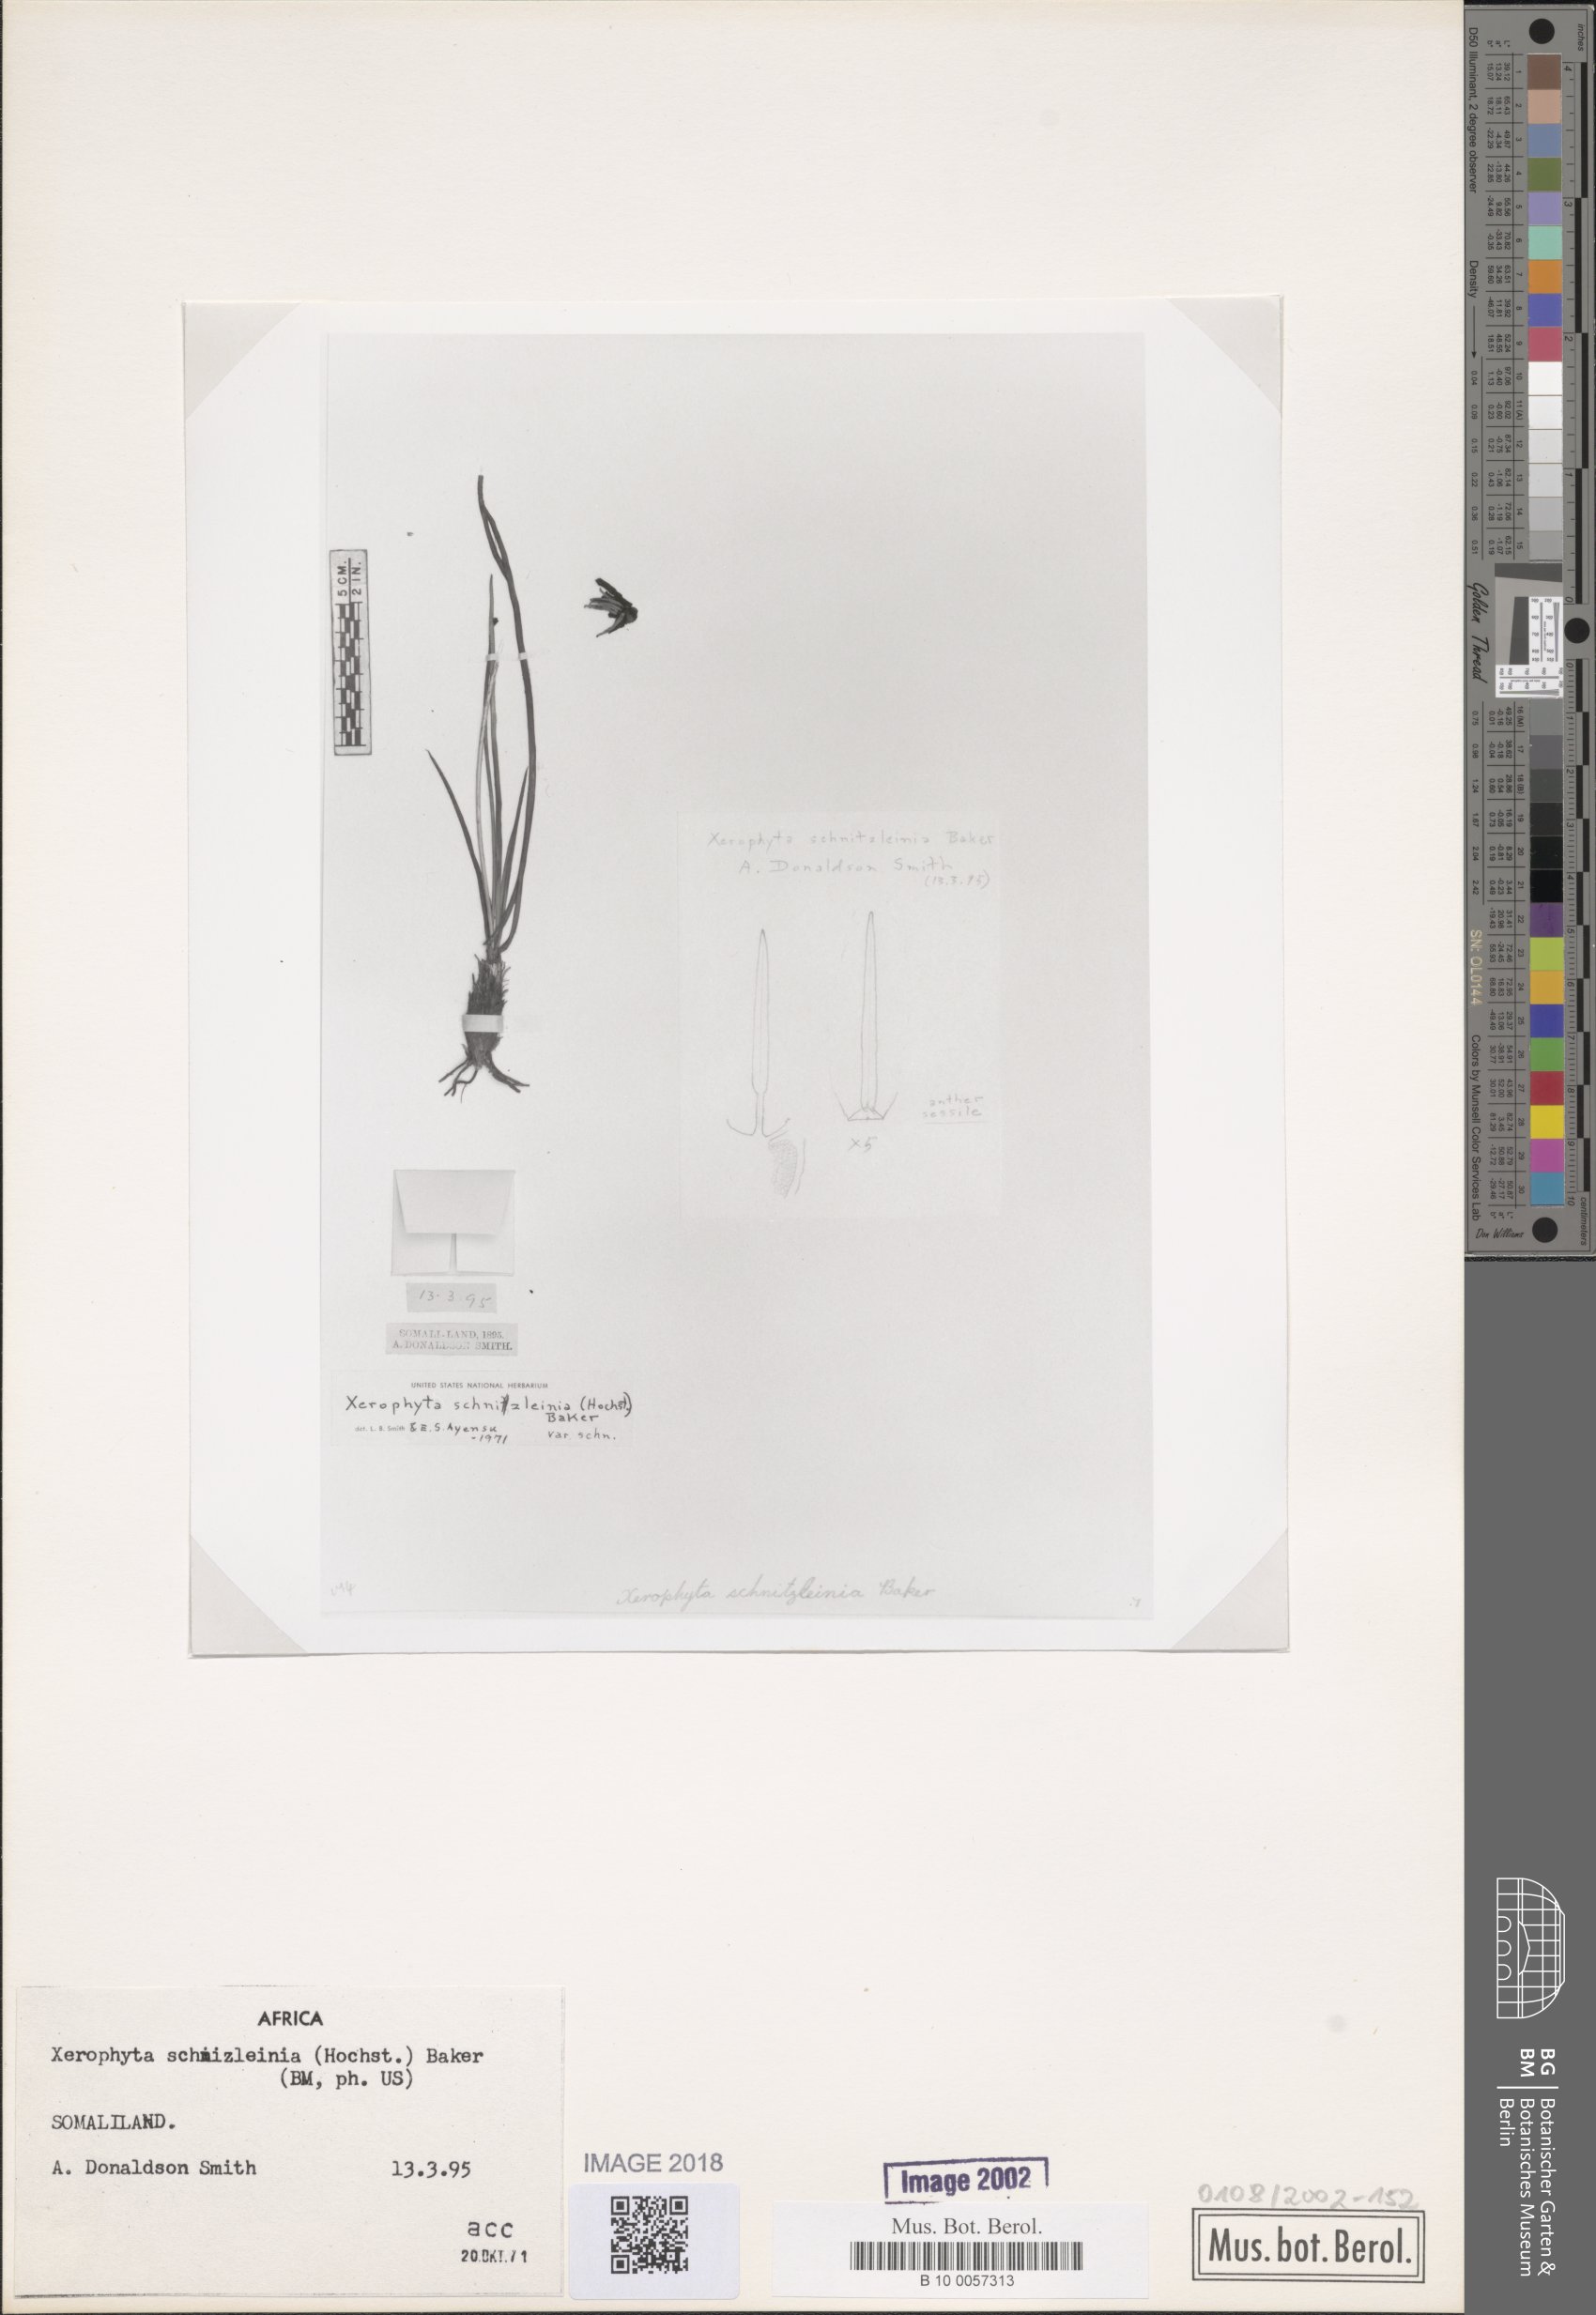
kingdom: Plantae
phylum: Tracheophyta
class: Liliopsida
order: Pandanales
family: Velloziaceae
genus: Xerophyta
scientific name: Xerophyta schnizleinia
